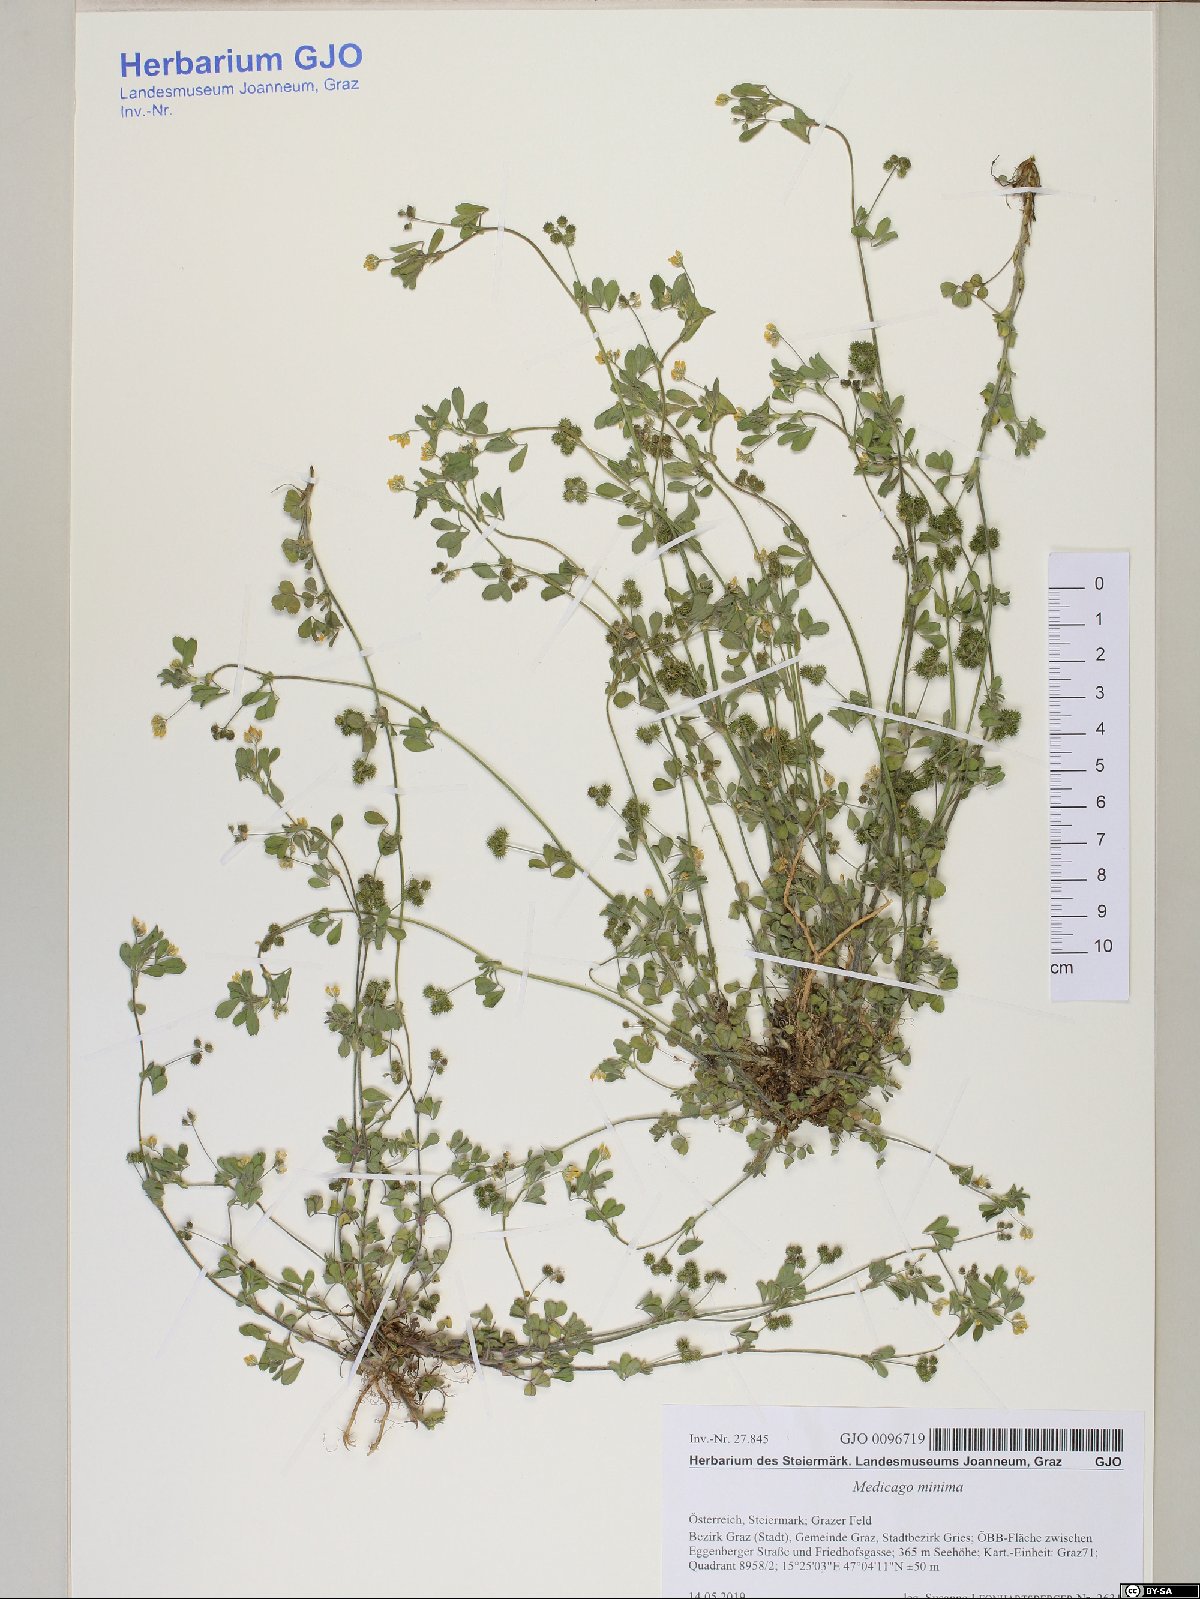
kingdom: Plantae
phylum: Tracheophyta
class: Magnoliopsida
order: Fabales
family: Fabaceae
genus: Medicago
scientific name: Medicago minima
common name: Little bur-clover
